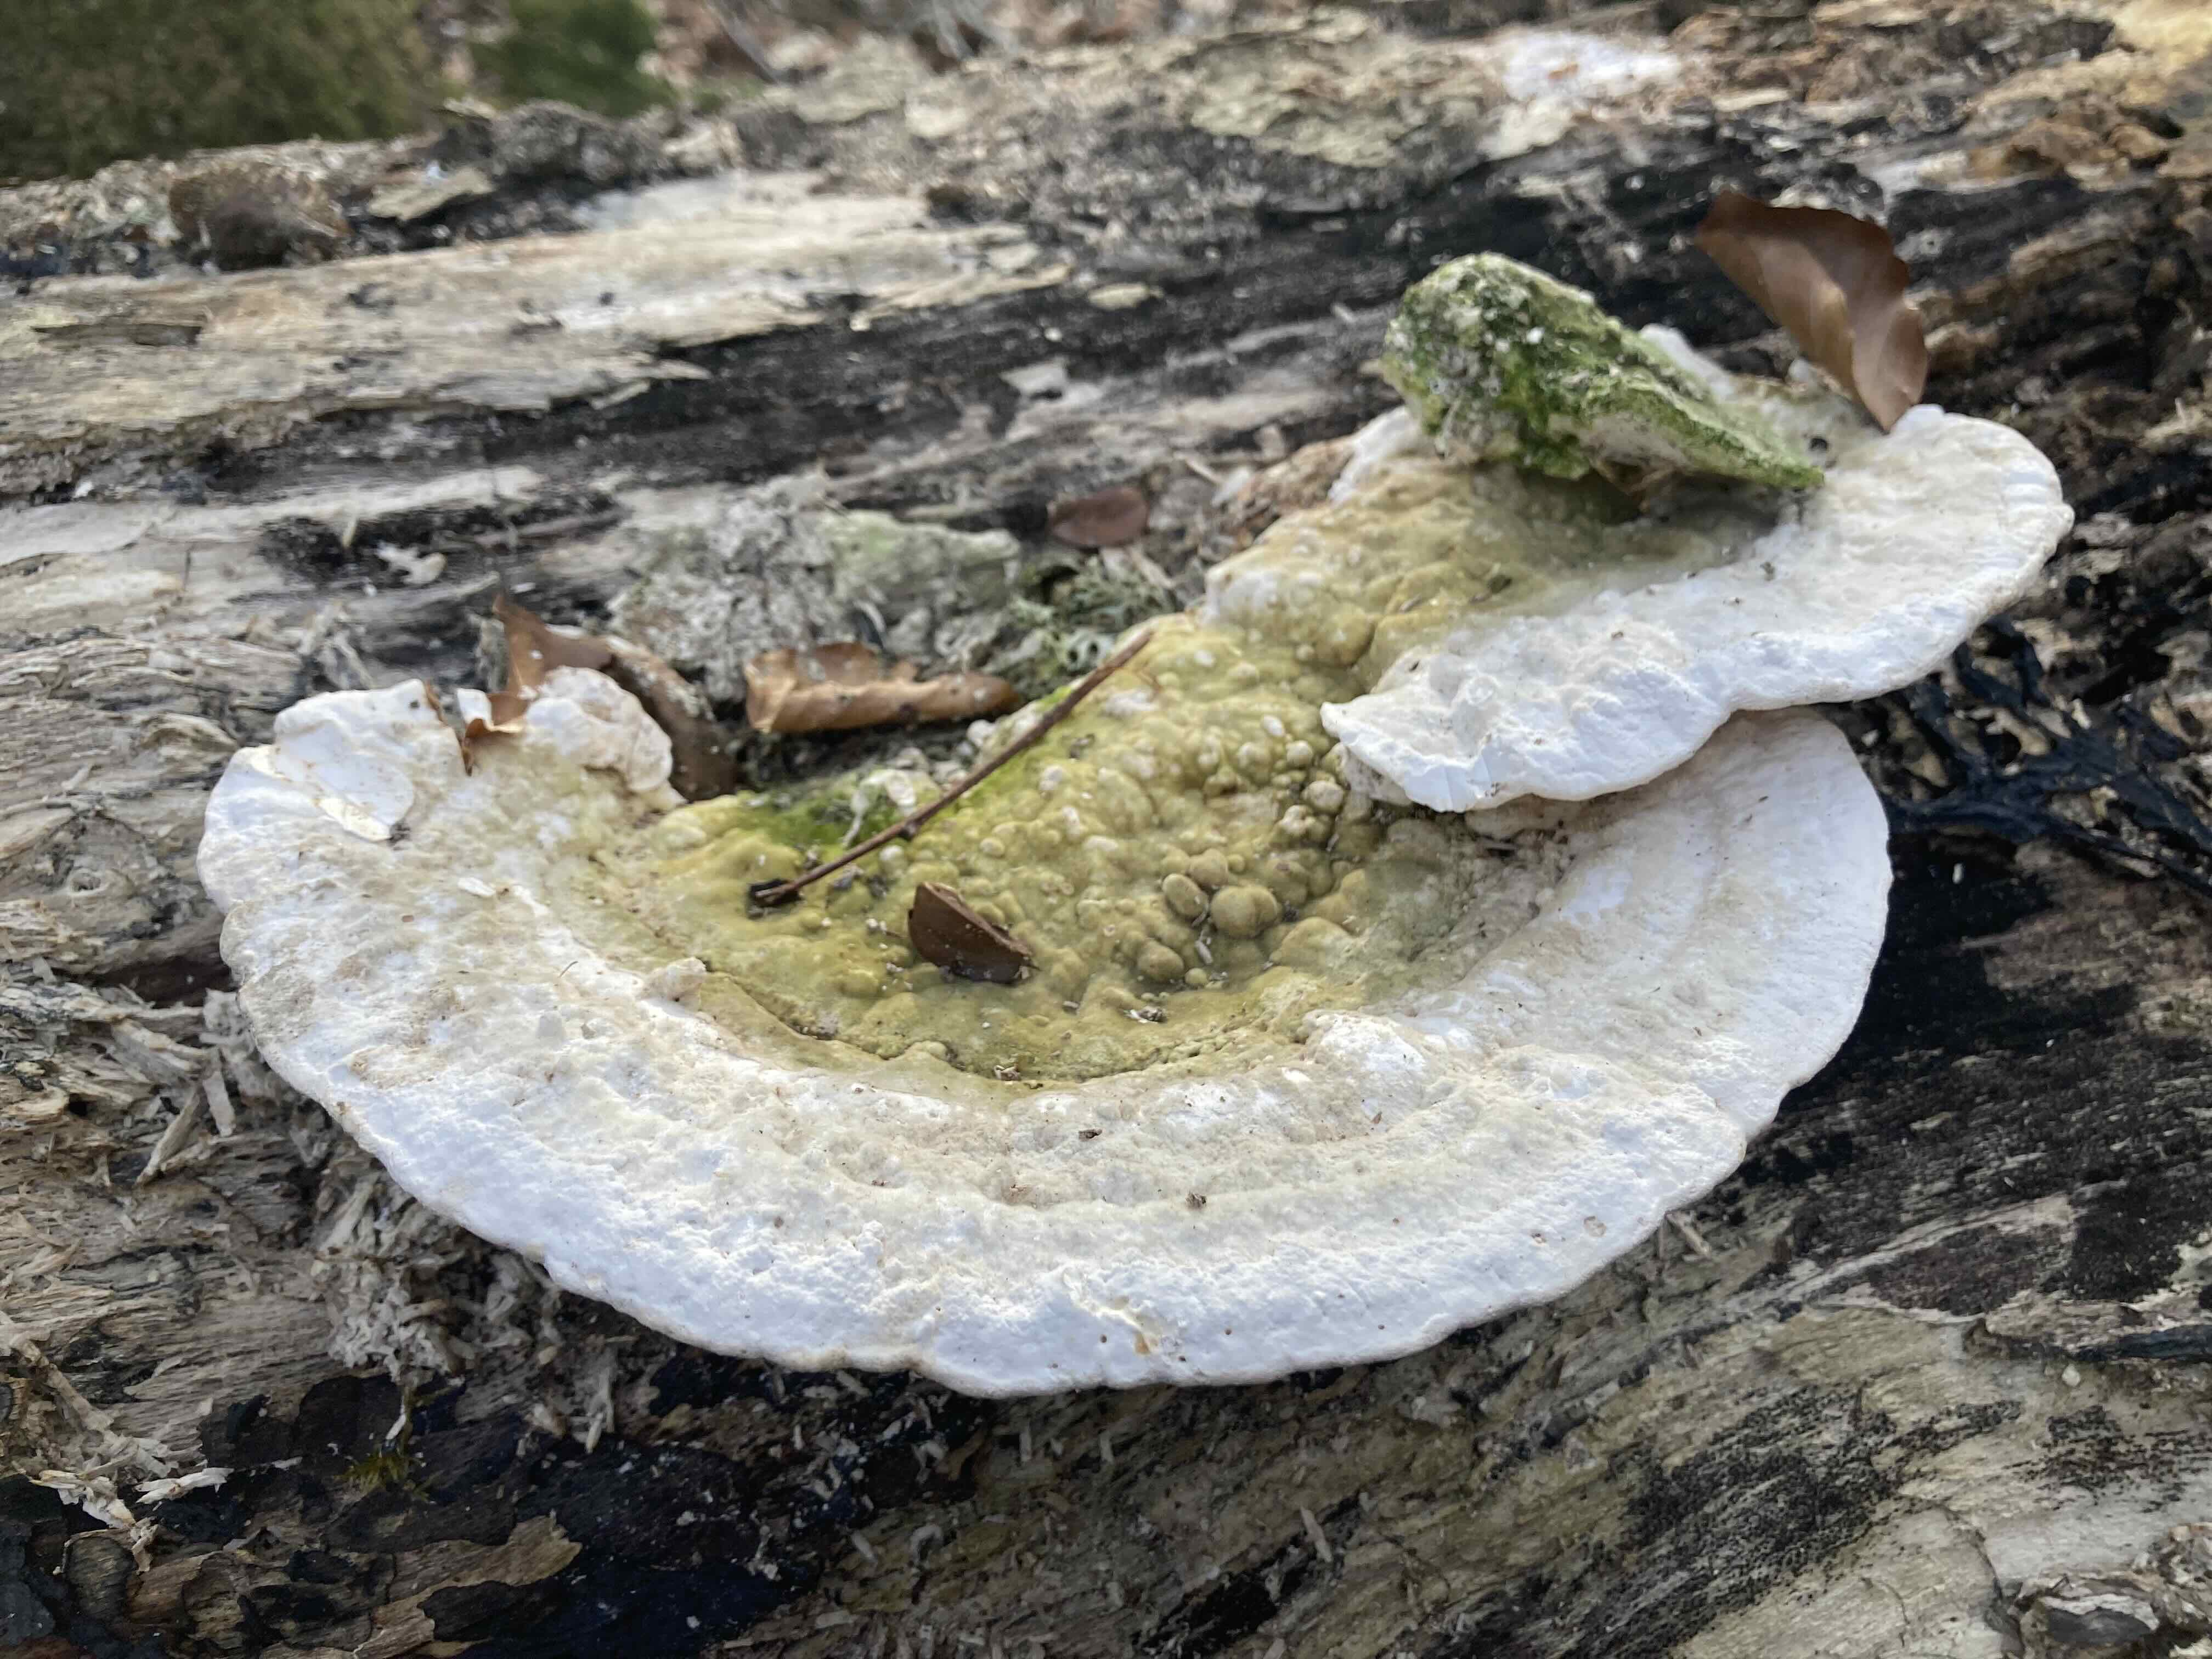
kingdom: Fungi
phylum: Basidiomycota
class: Agaricomycetes
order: Polyporales
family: Polyporaceae
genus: Trametes
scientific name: Trametes gibbosa
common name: puklet læderporesvamp
